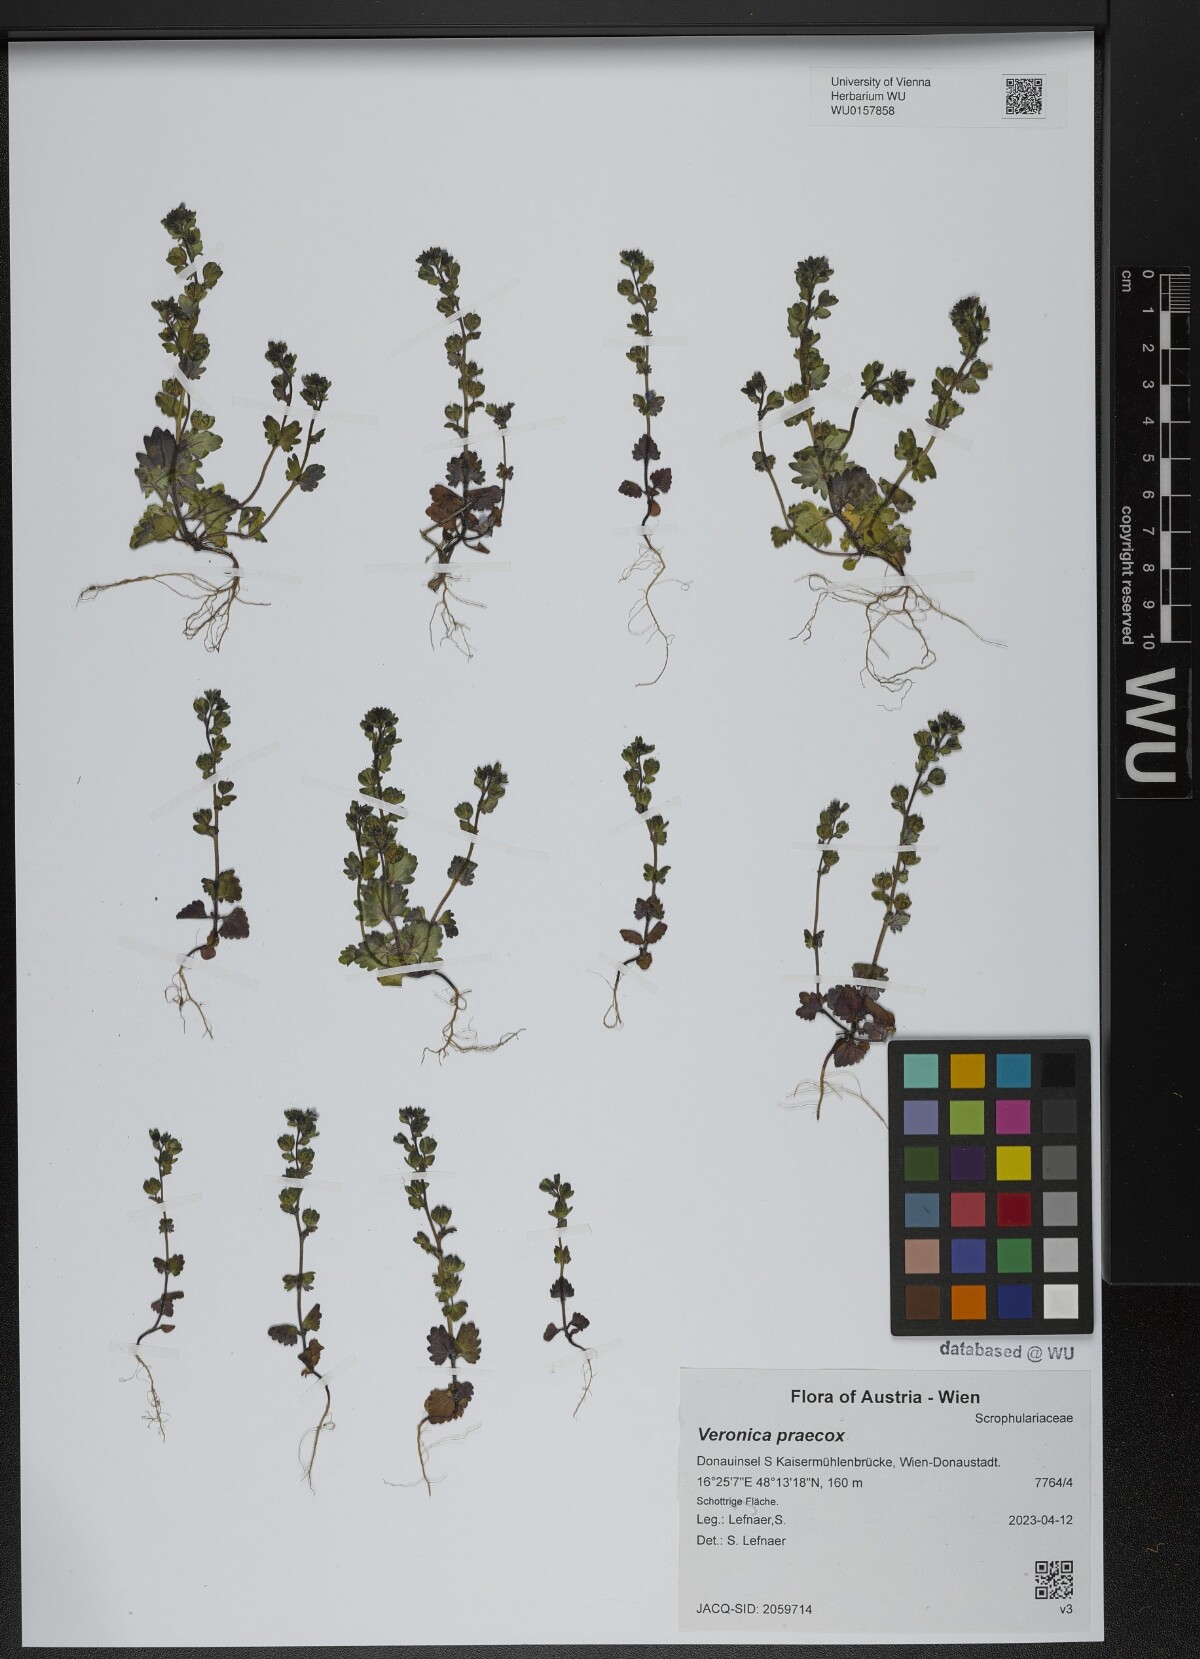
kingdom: Plantae
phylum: Tracheophyta
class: Magnoliopsida
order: Lamiales
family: Plantaginaceae
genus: Veronica
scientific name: Veronica praecox
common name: Breckland speedwell
